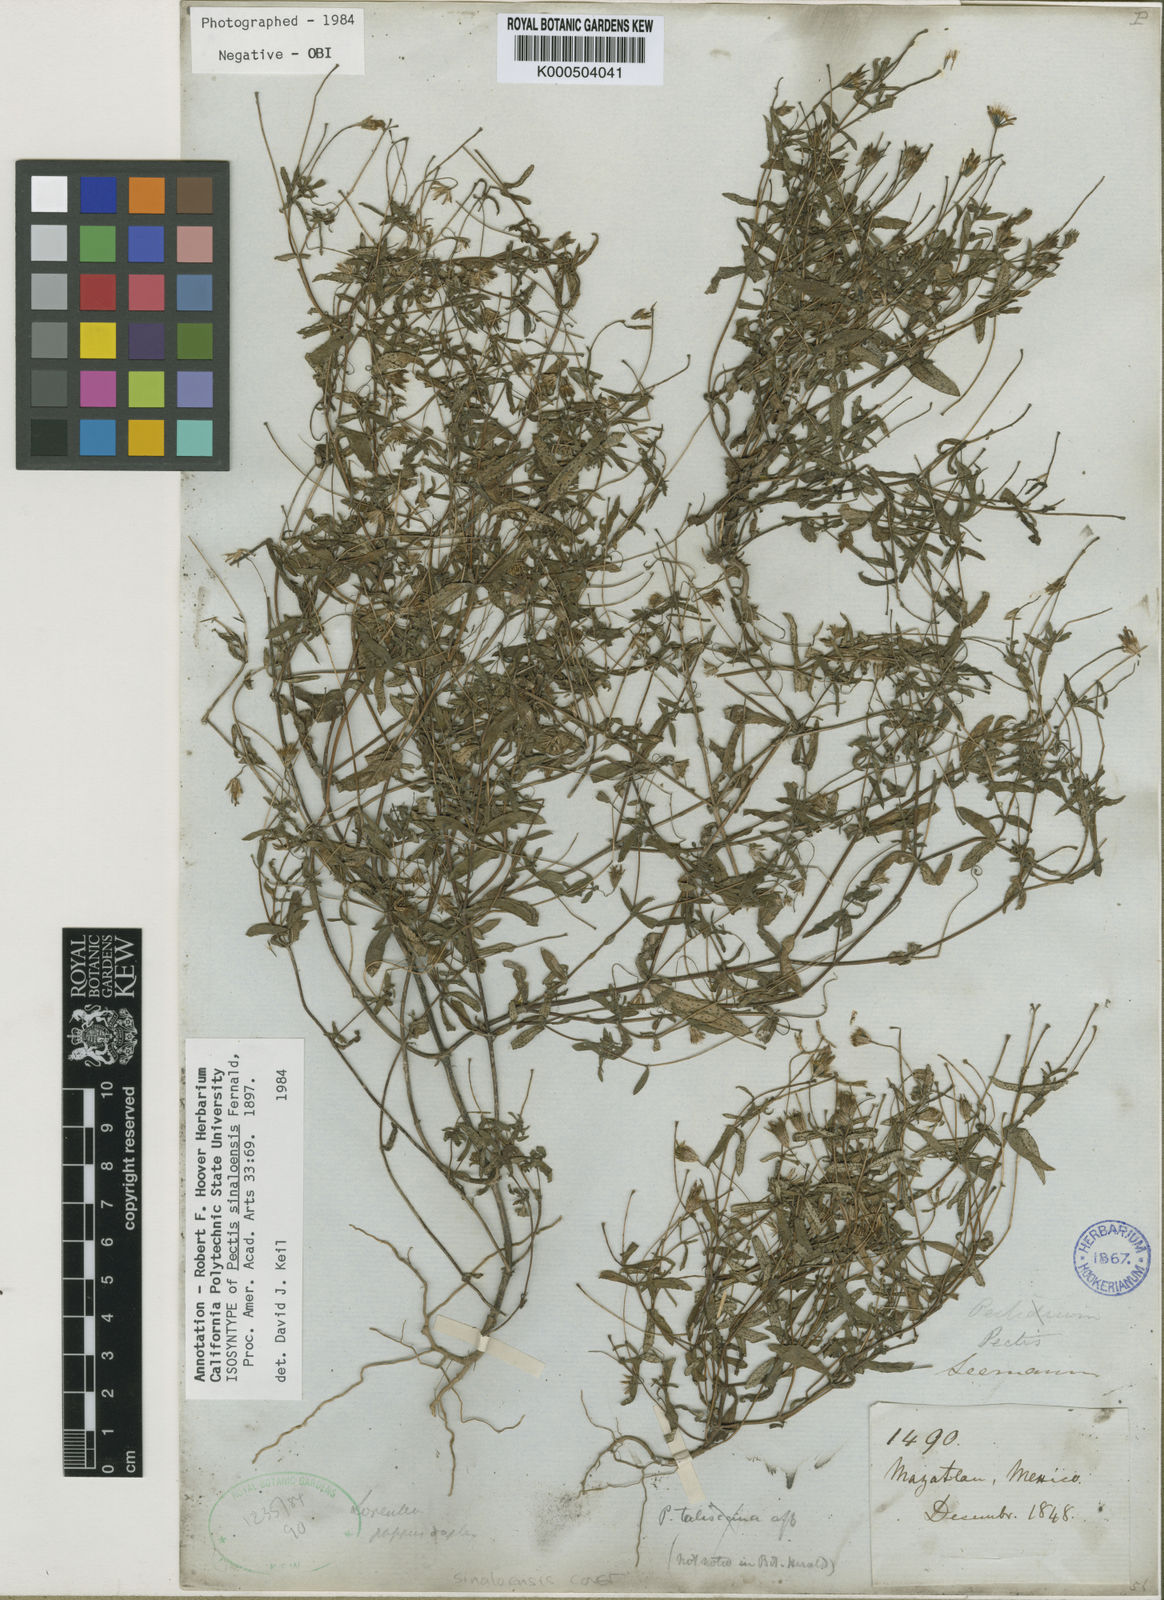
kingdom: Plantae
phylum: Tracheophyta
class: Magnoliopsida
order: Asterales
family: Asteraceae
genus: Pectis
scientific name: Pectis sinaloensis
